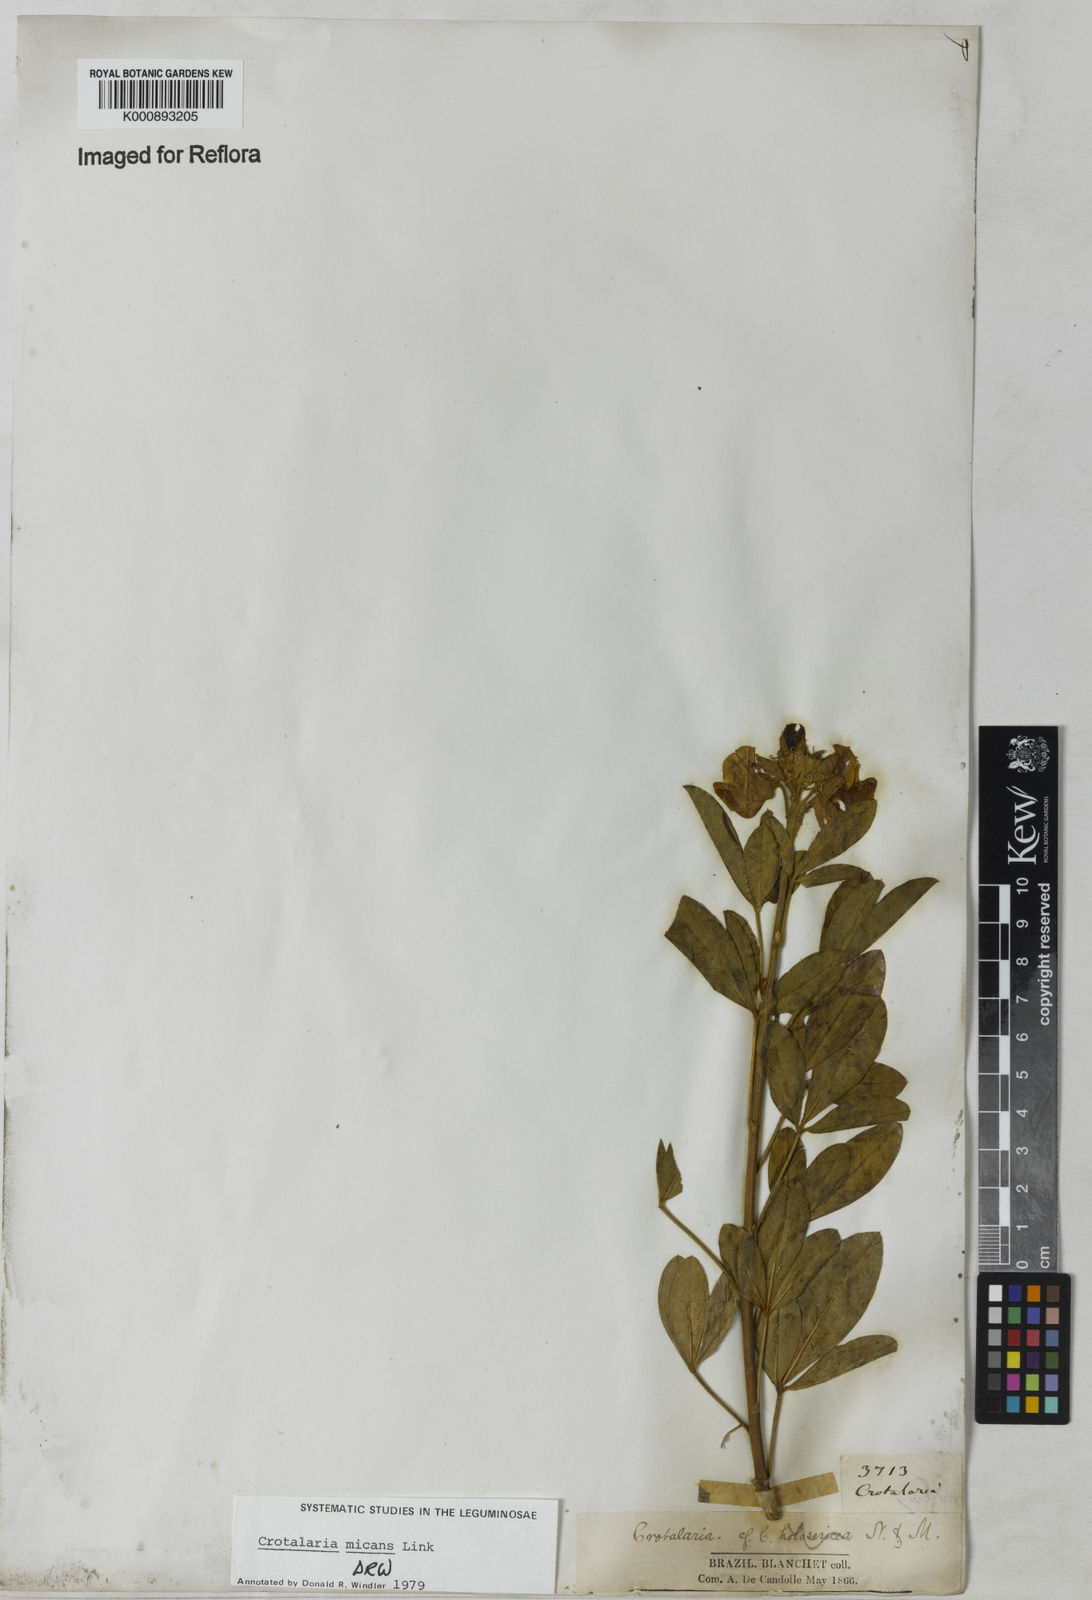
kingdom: Plantae
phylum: Tracheophyta
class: Magnoliopsida
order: Fabales
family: Fabaceae
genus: Crotalaria
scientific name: Crotalaria micans
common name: Caracas rattlebox
